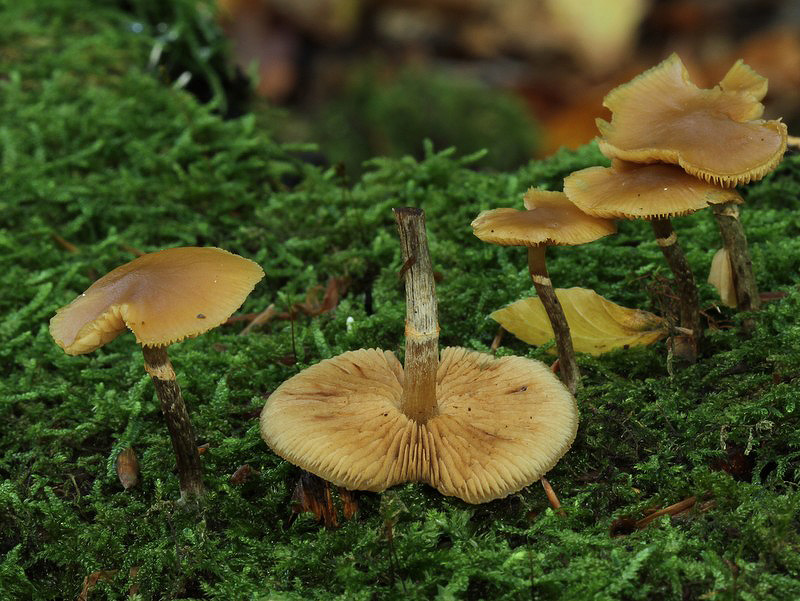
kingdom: Fungi
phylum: Basidiomycota
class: Agaricomycetes
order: Agaricales
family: Hymenogastraceae
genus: Galerina
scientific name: Galerina marginata
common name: randbæltet hjelmhat
